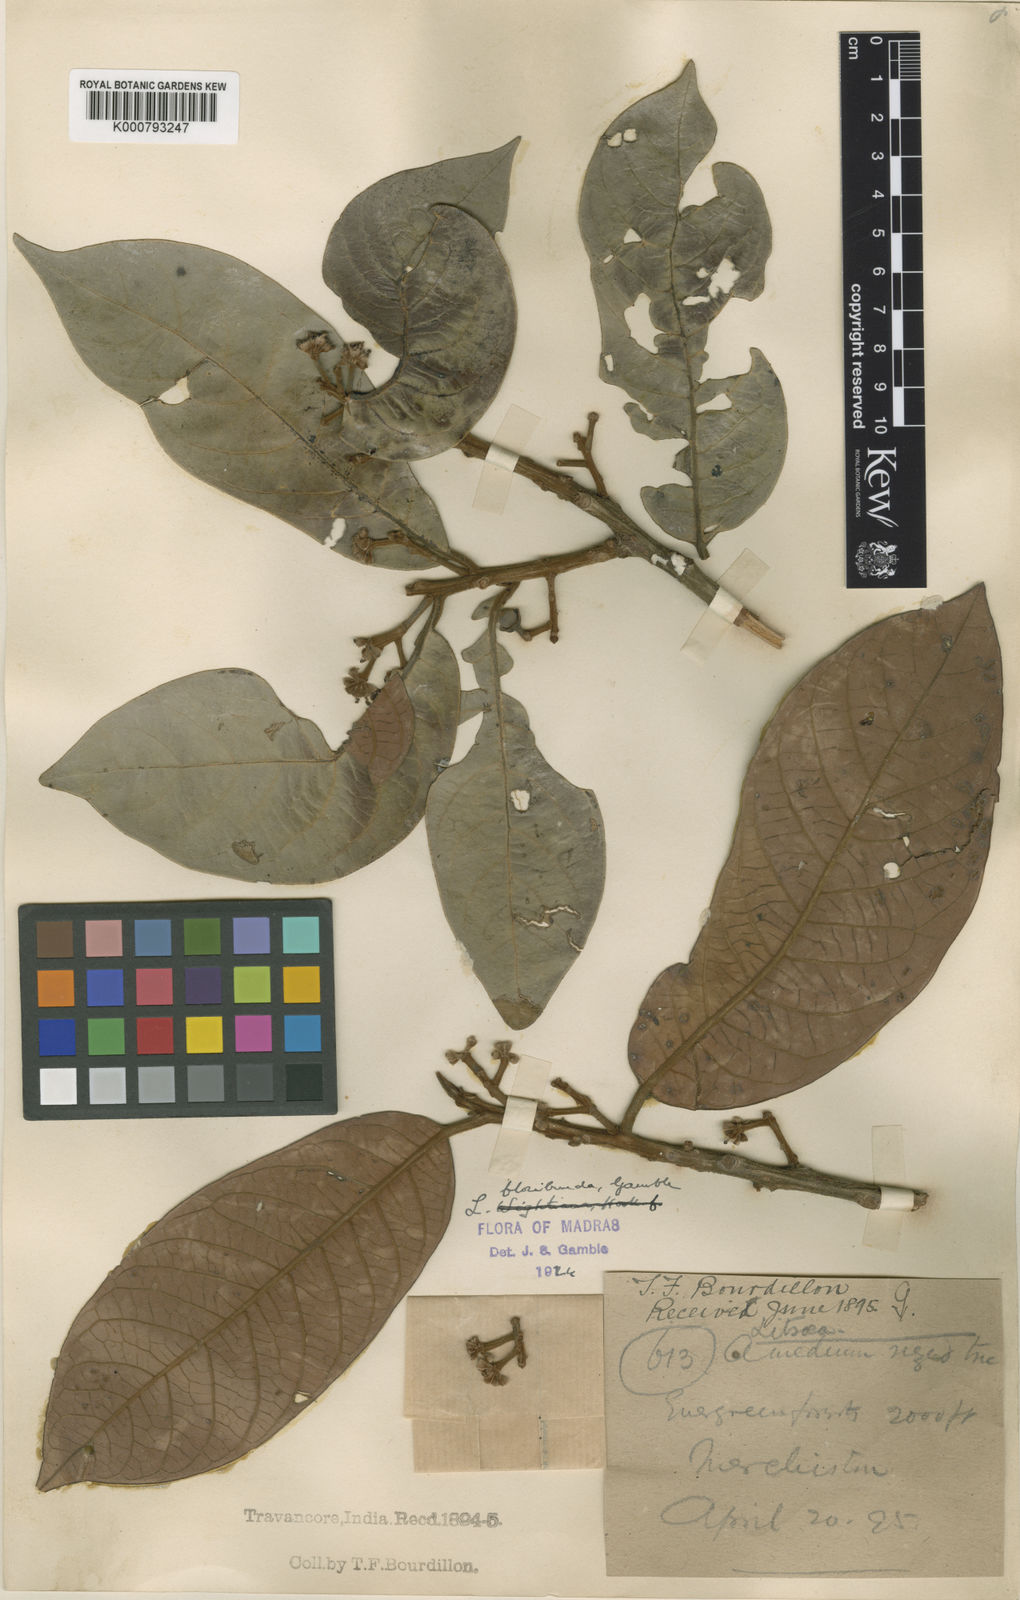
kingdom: Plantae
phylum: Tracheophyta
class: Magnoliopsida
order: Laurales
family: Lauraceae
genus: Litsea
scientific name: Litsea floribunda
